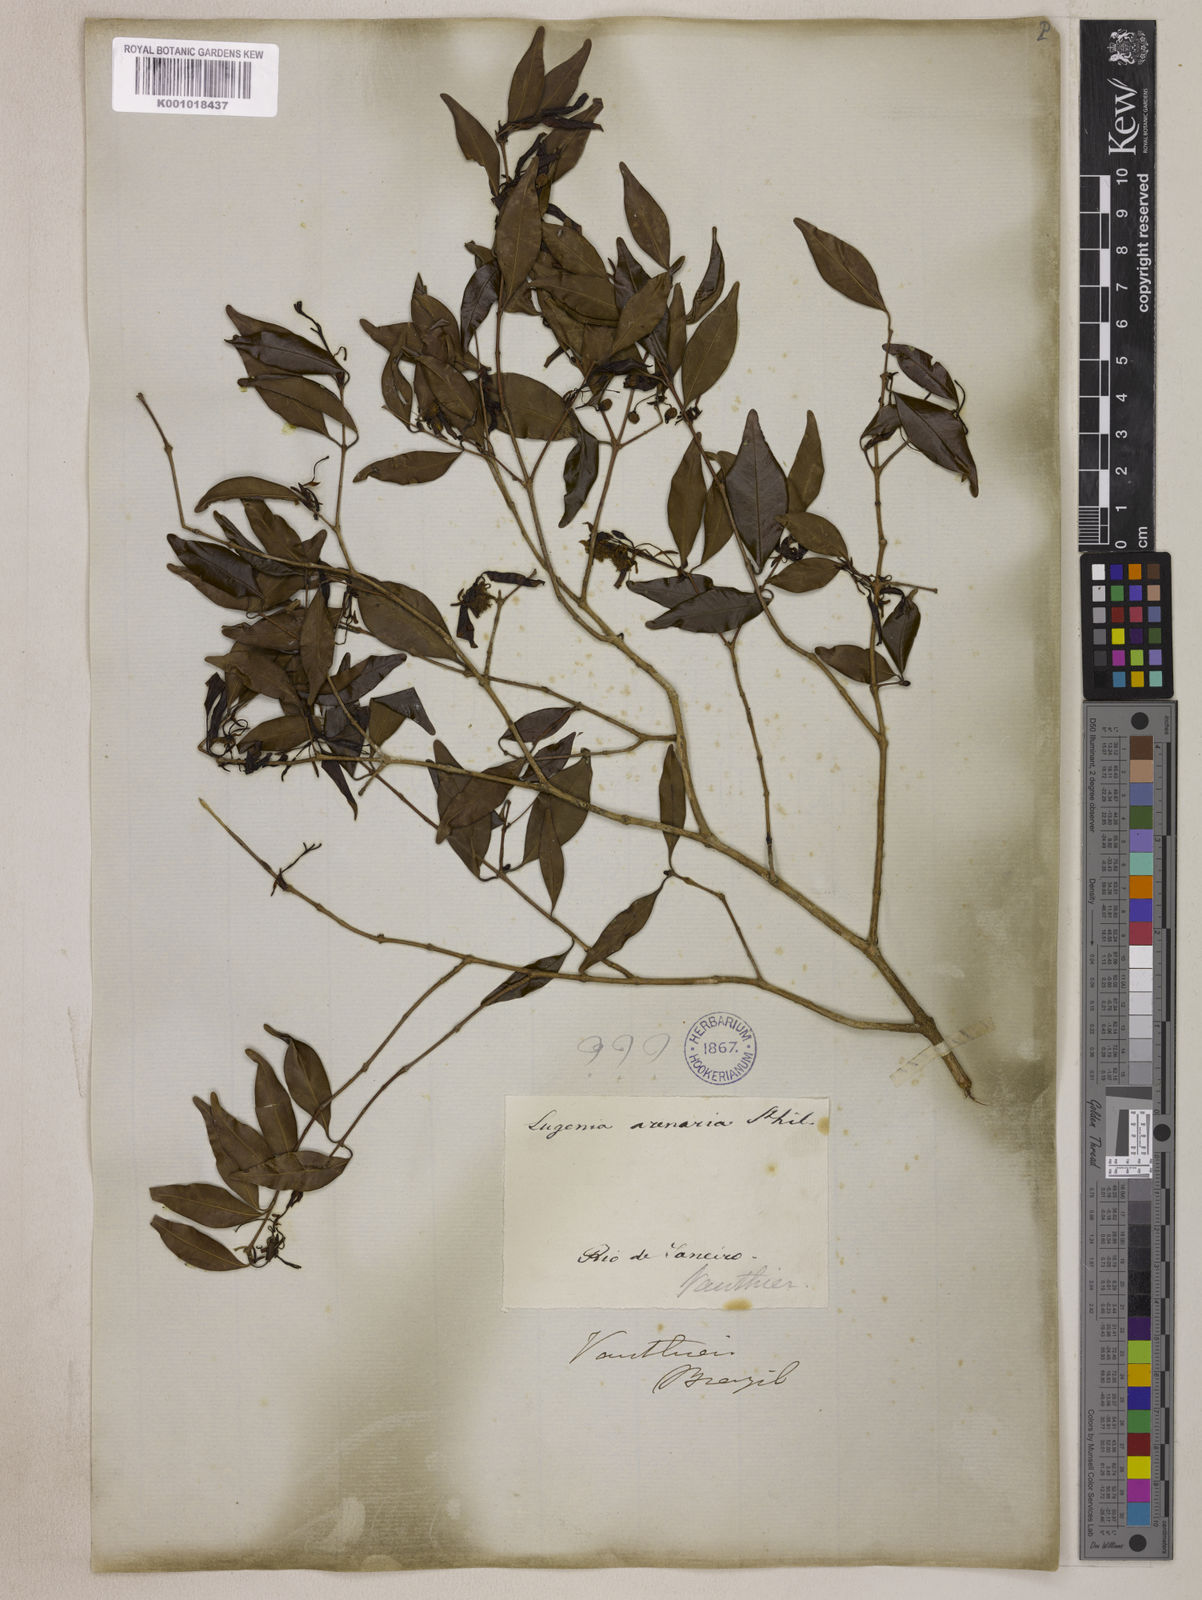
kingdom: Plantae
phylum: Tracheophyta
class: Magnoliopsida
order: Myrtales
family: Myrtaceae
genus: Eugenia
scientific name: Eugenia sulcata
